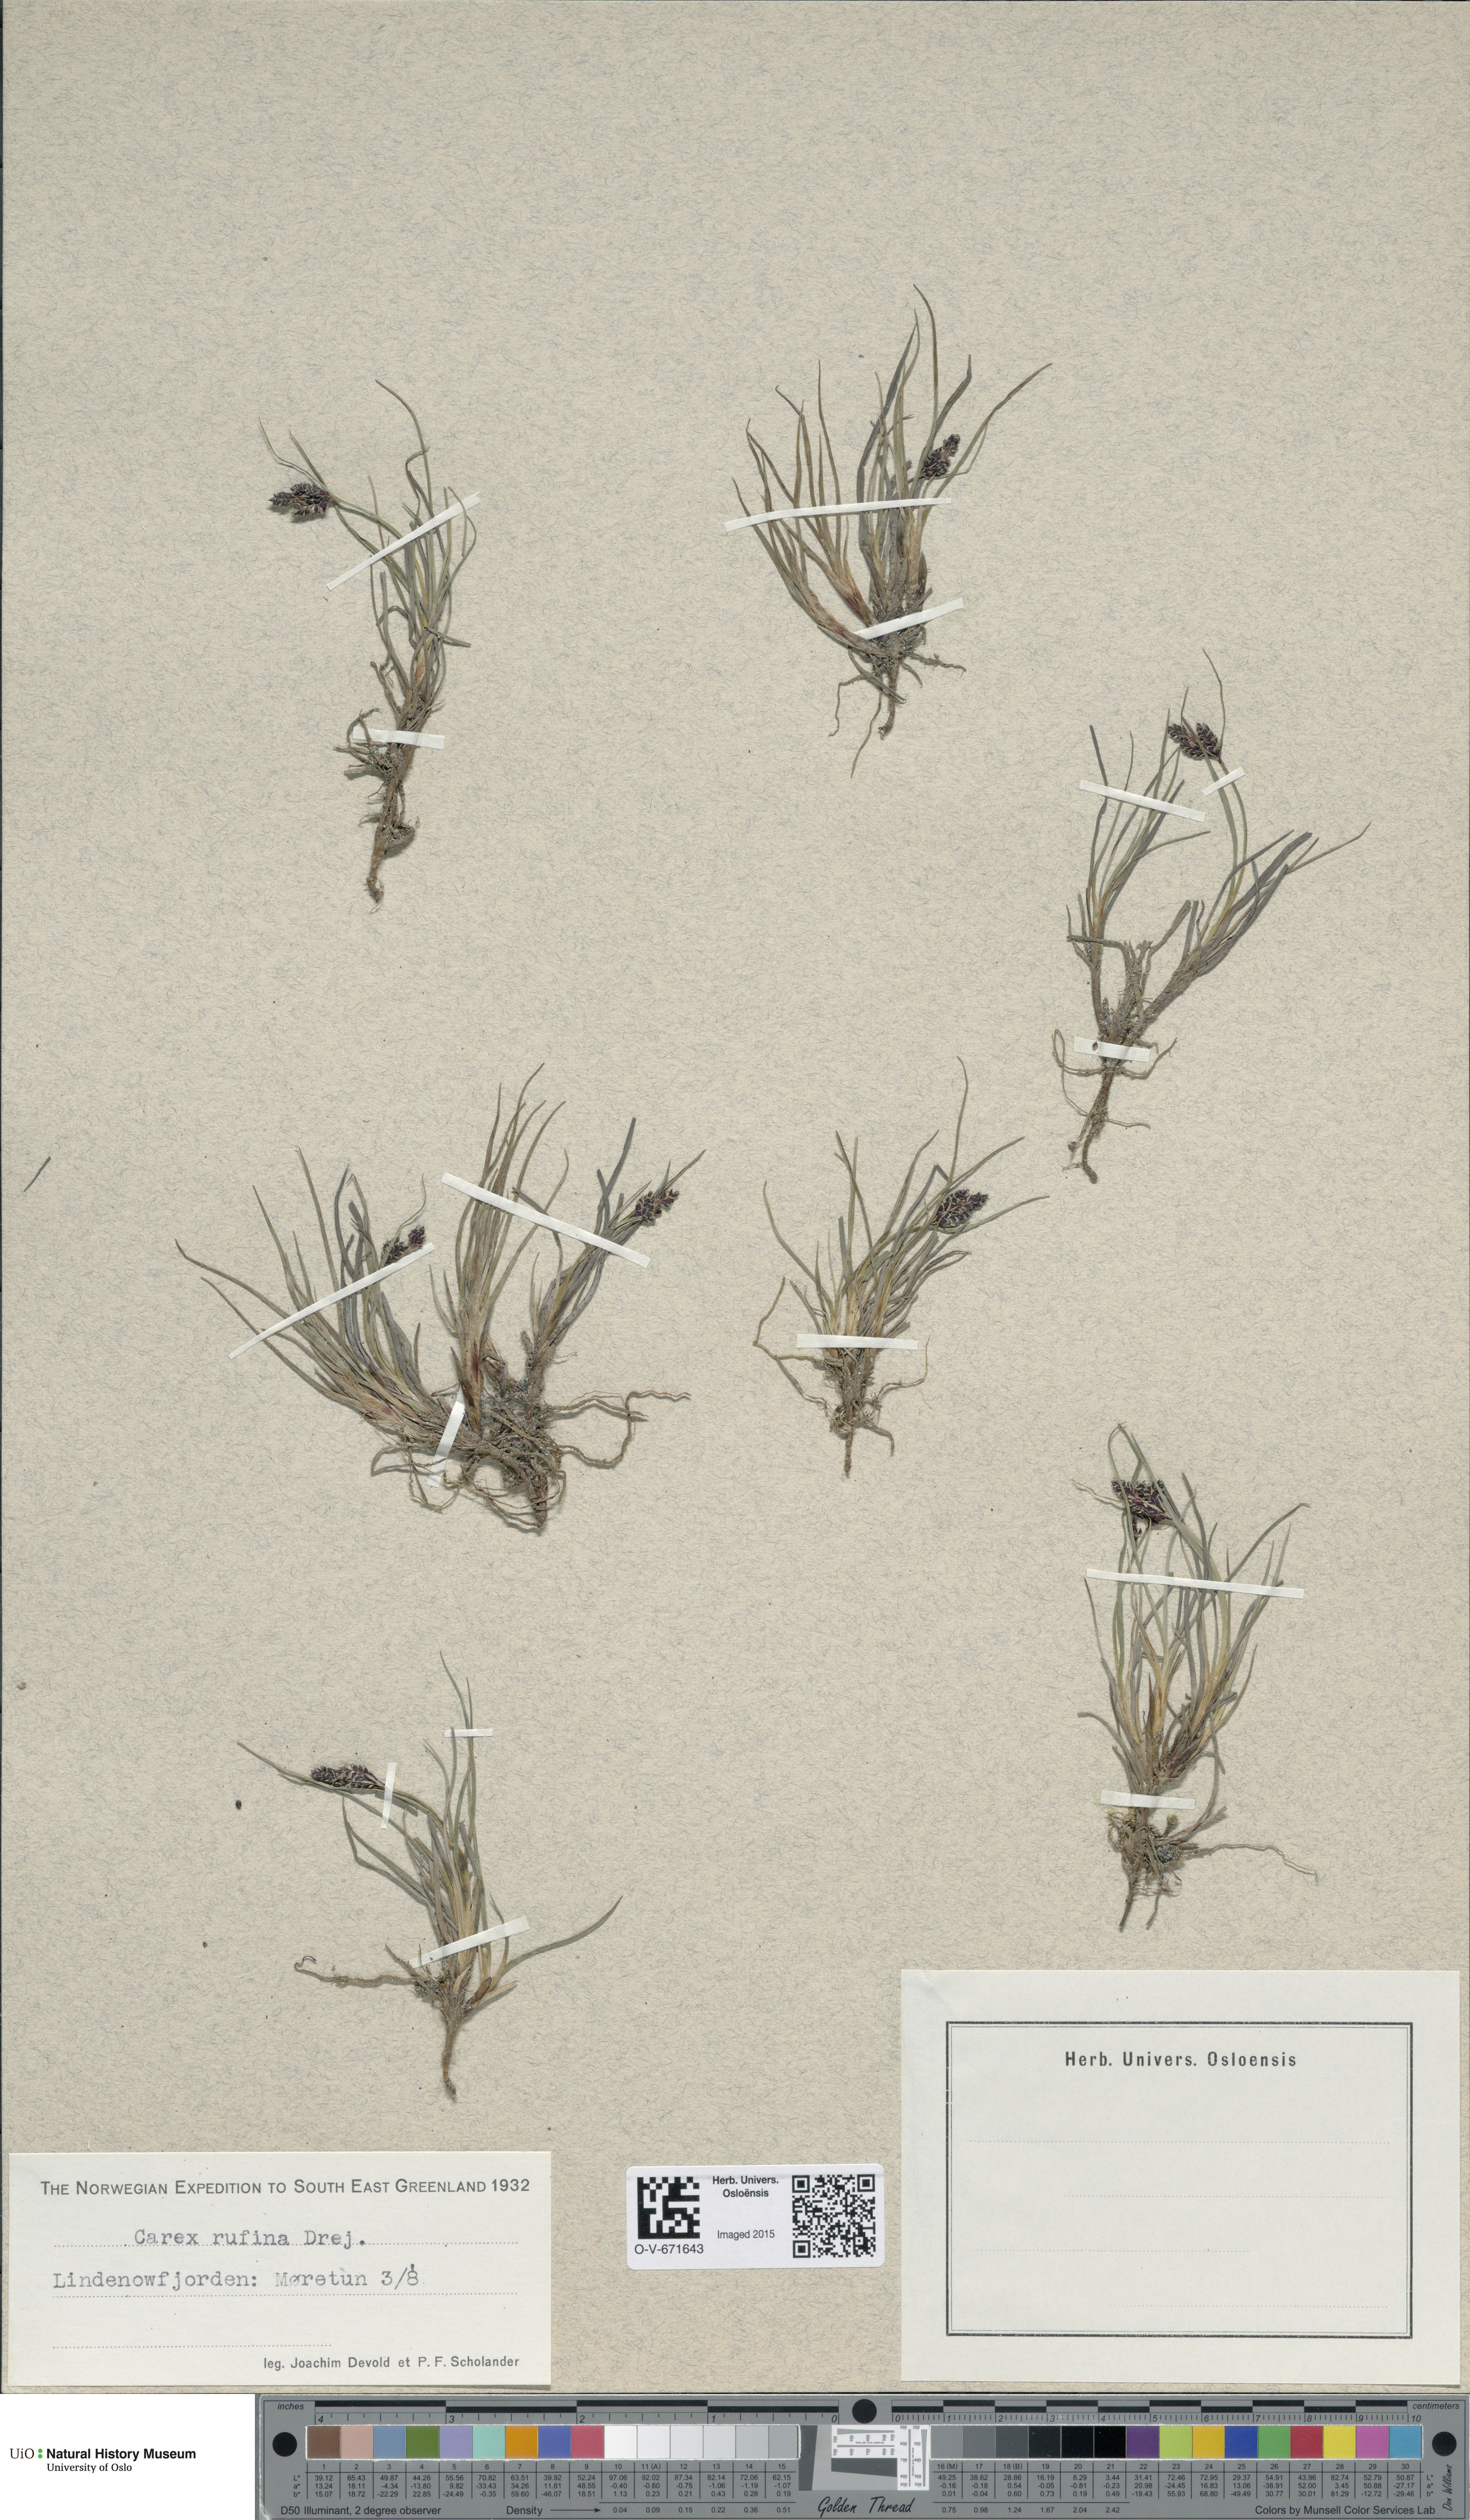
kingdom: Plantae
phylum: Tracheophyta
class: Liliopsida
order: Poales
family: Cyperaceae
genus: Carex
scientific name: Carex rufina
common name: Reddish sedge
